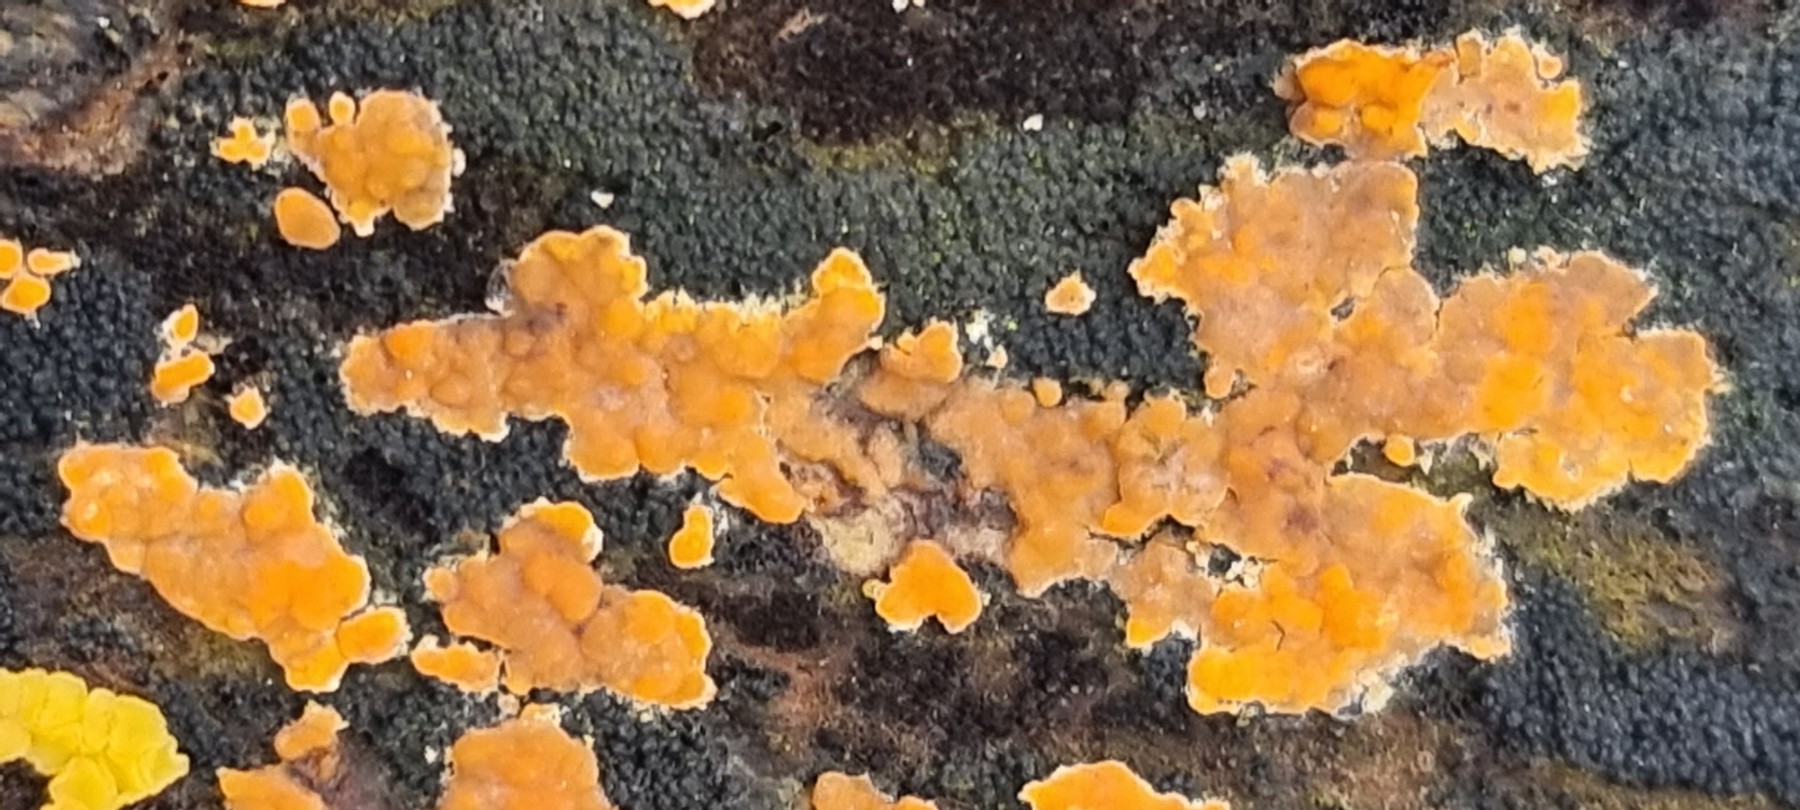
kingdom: Fungi
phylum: Basidiomycota
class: Agaricomycetes
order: Russulales
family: Peniophoraceae
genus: Peniophora
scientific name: Peniophora incarnata
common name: laksefarvet voksskind
